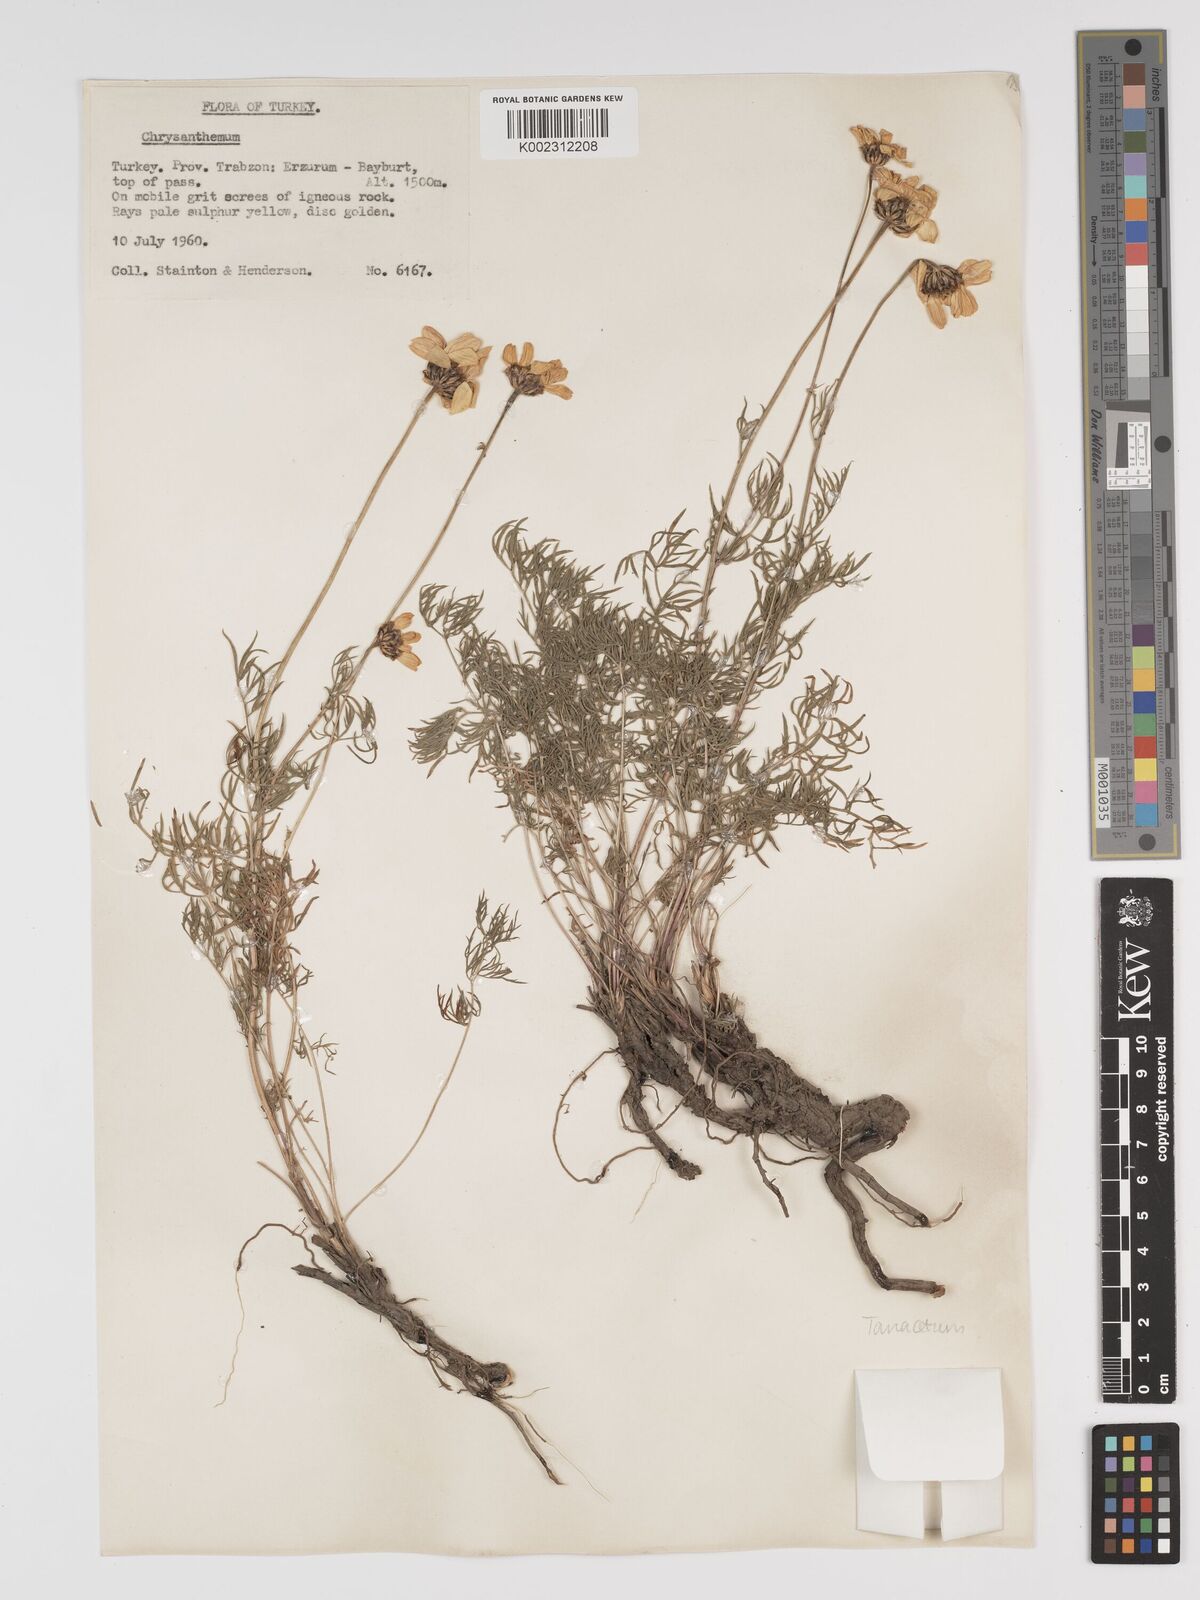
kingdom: Plantae
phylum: Tracheophyta
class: Magnoliopsida
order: Asterales
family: Asteraceae
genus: Tanacetum
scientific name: Tanacetum
